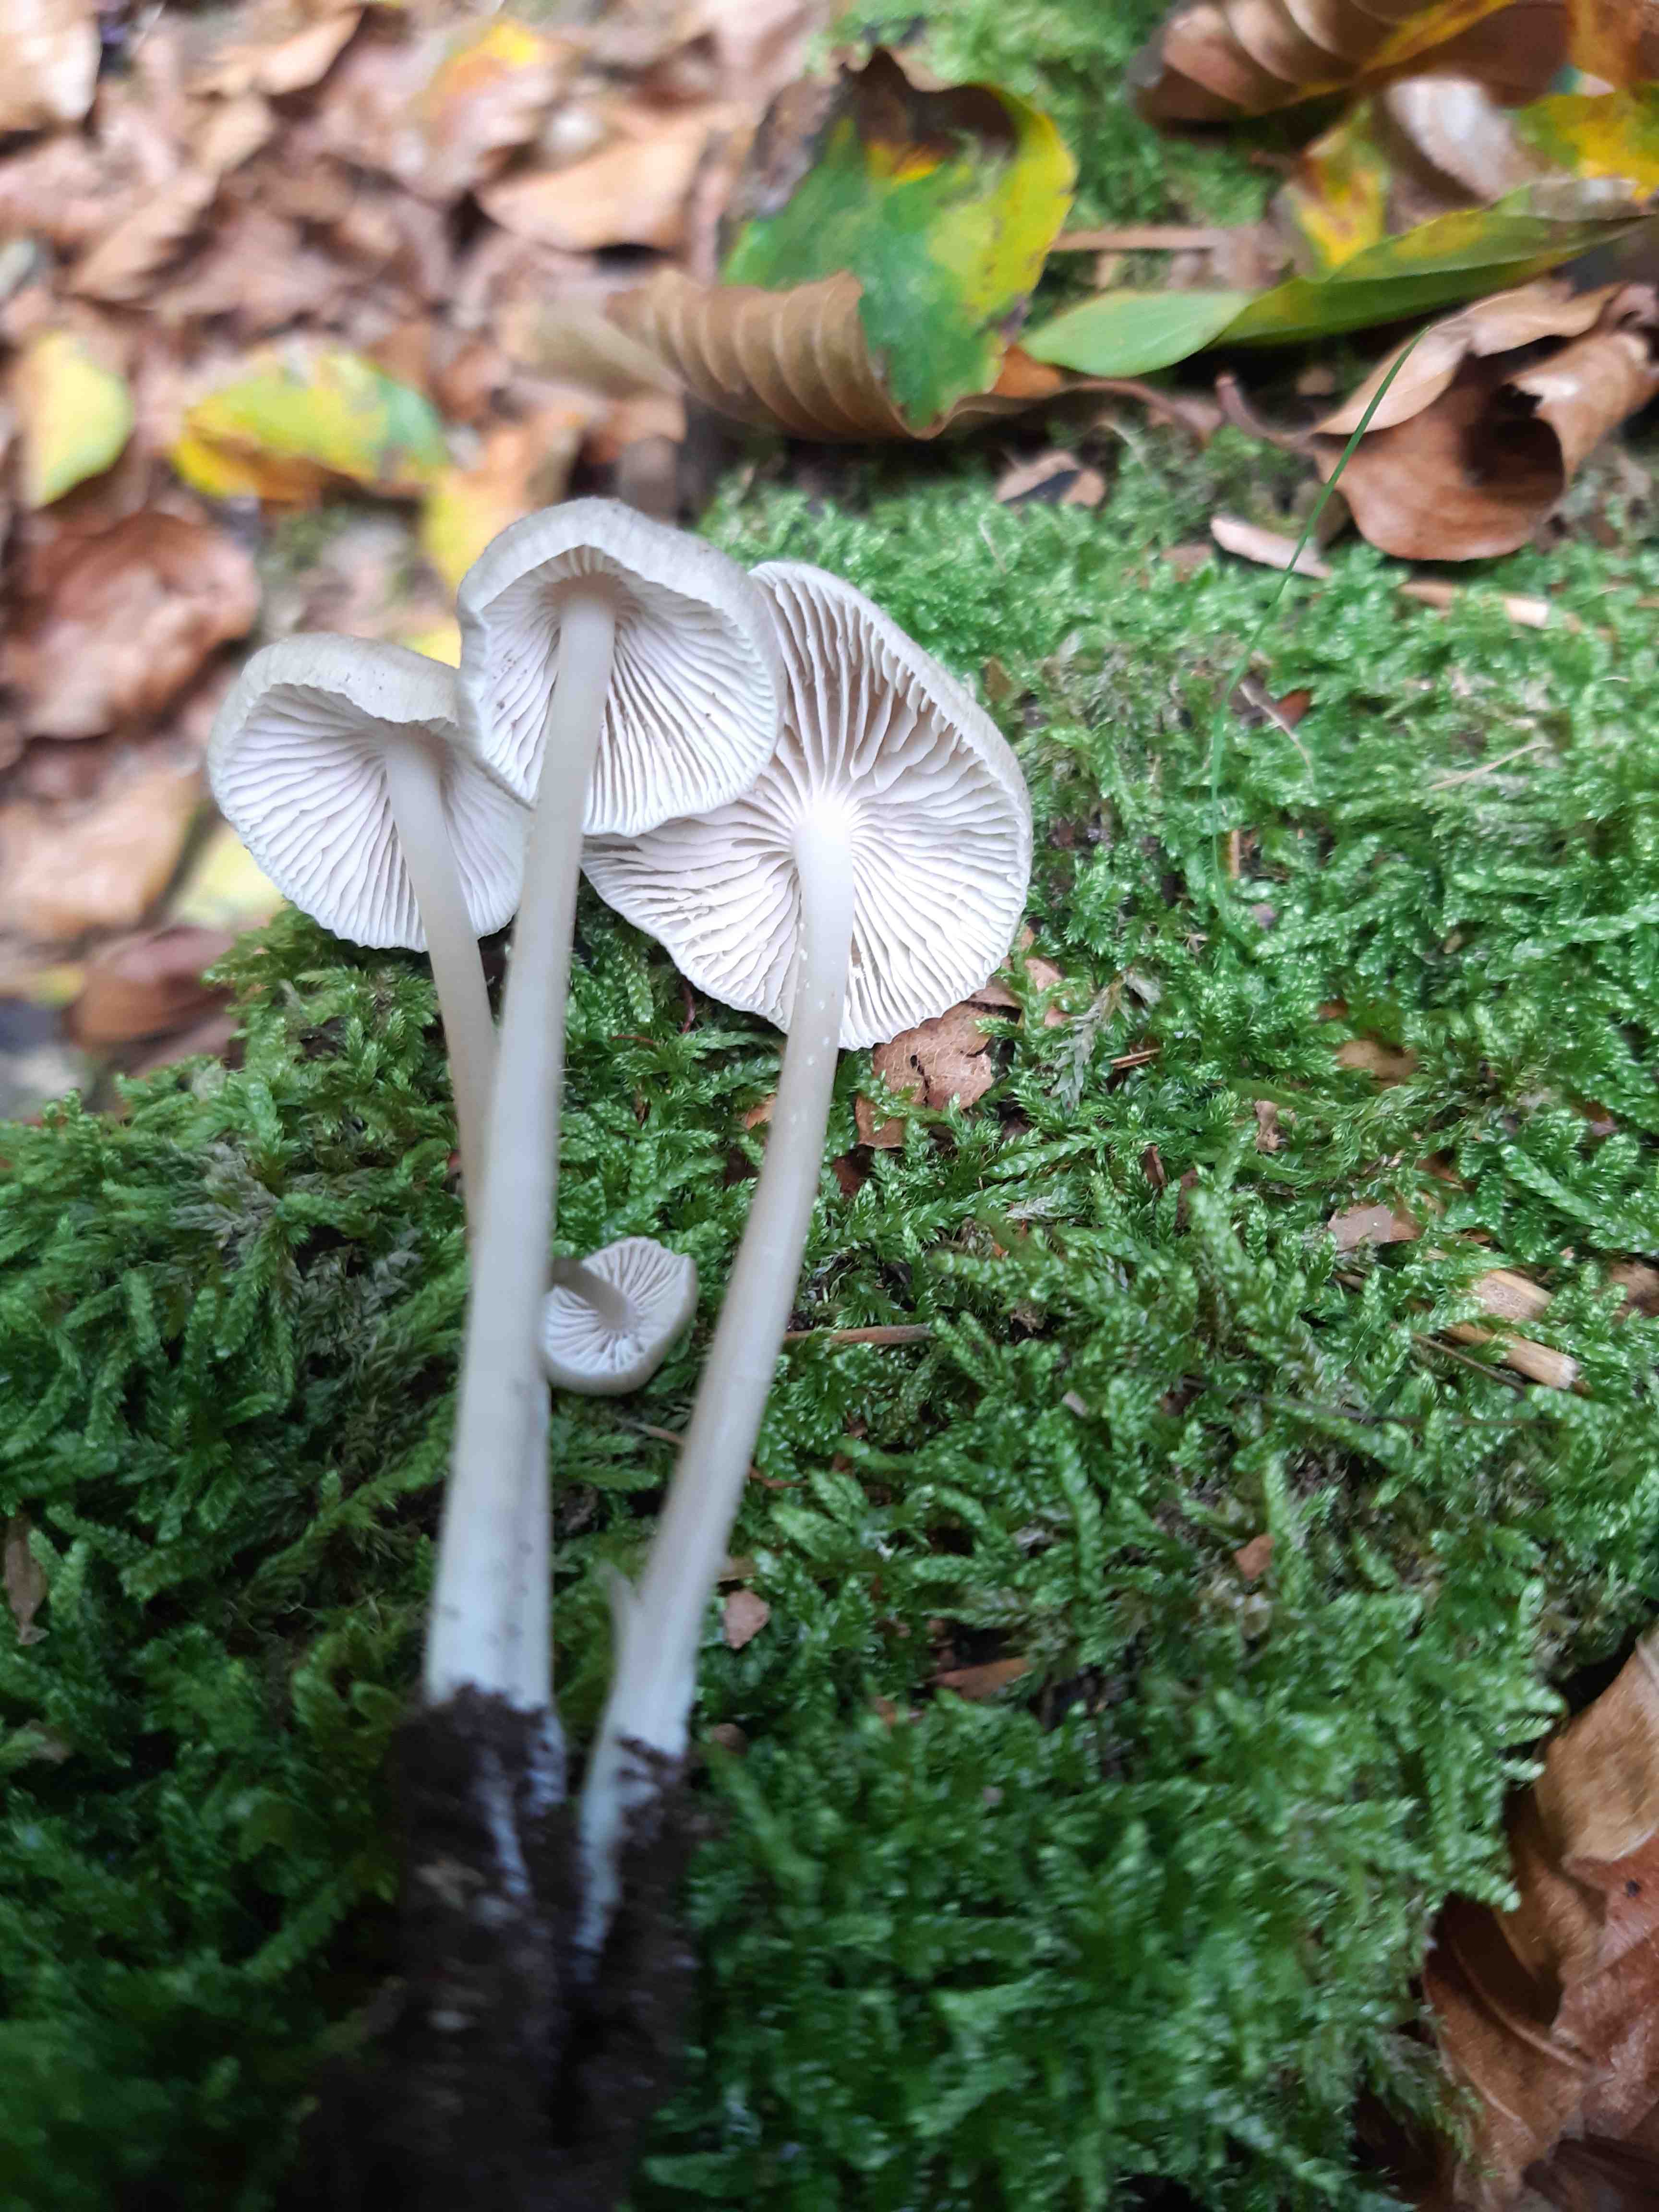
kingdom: Fungi
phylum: Basidiomycota
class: Agaricomycetes
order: Agaricales
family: Mycenaceae
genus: Mycena
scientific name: Mycena galericulata
